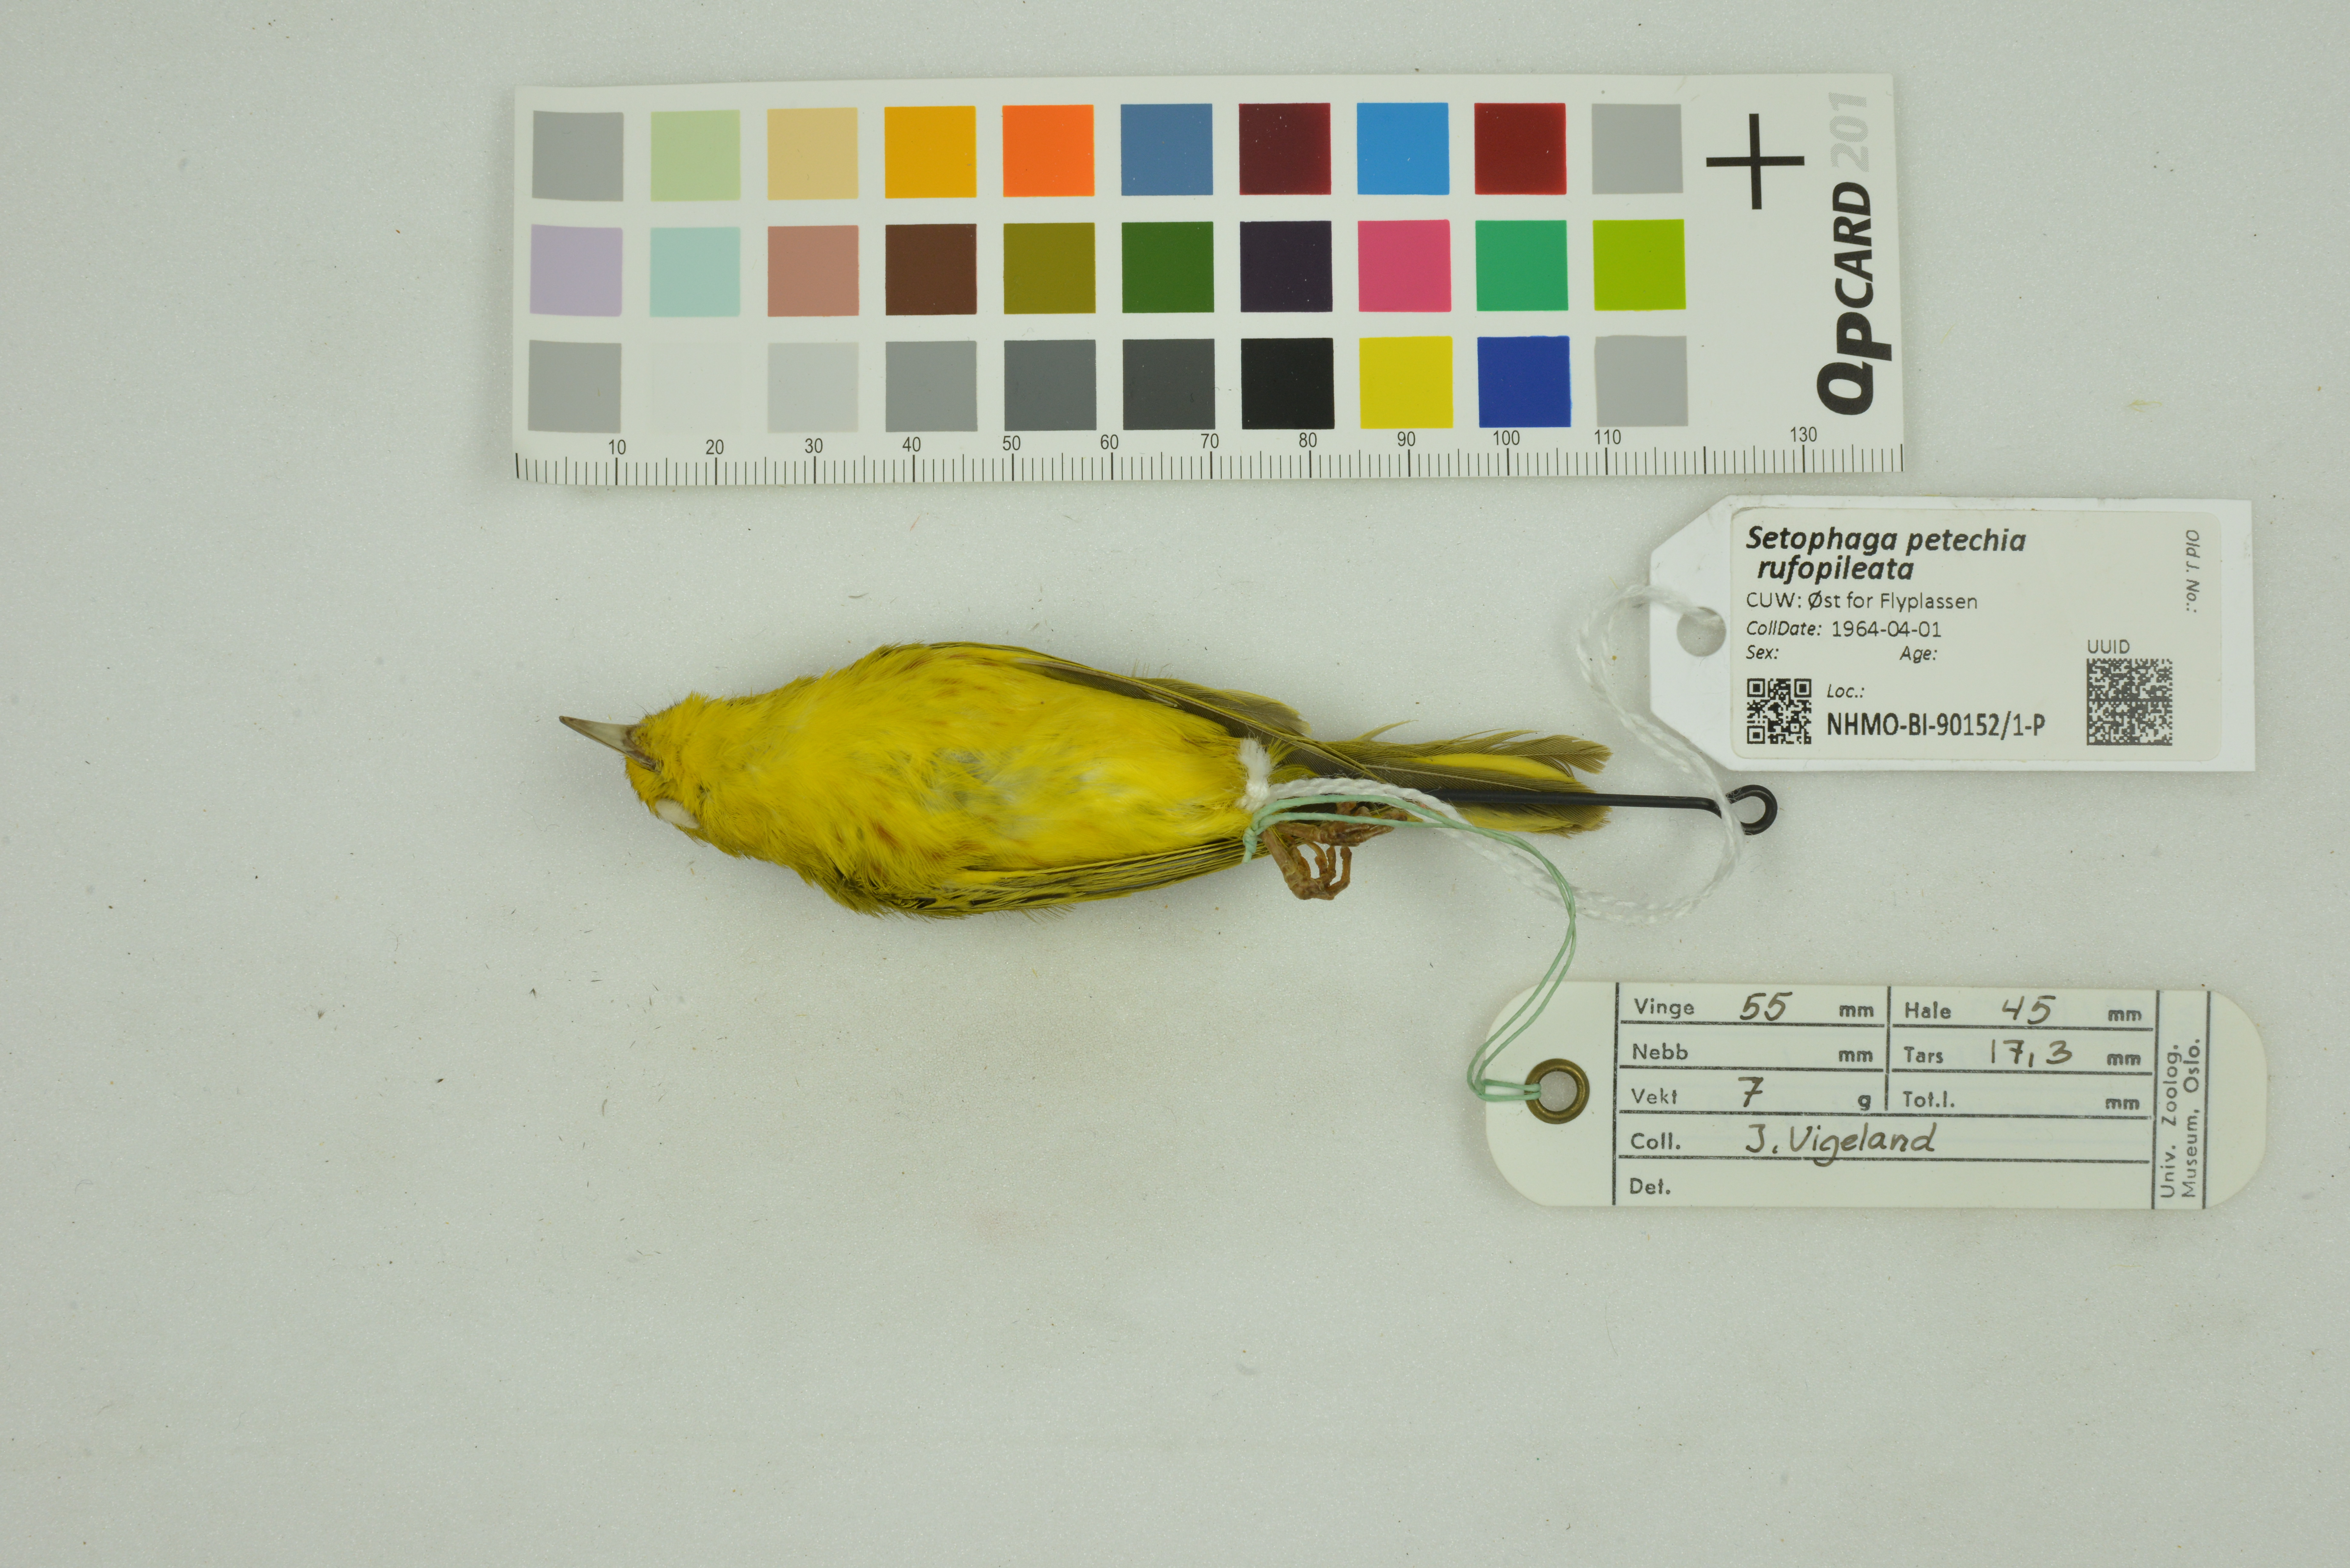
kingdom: Animalia
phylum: Chordata
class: Aves
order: Passeriformes
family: Parulidae
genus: Setophaga
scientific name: Setophaga petechia
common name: Yellow warbler
